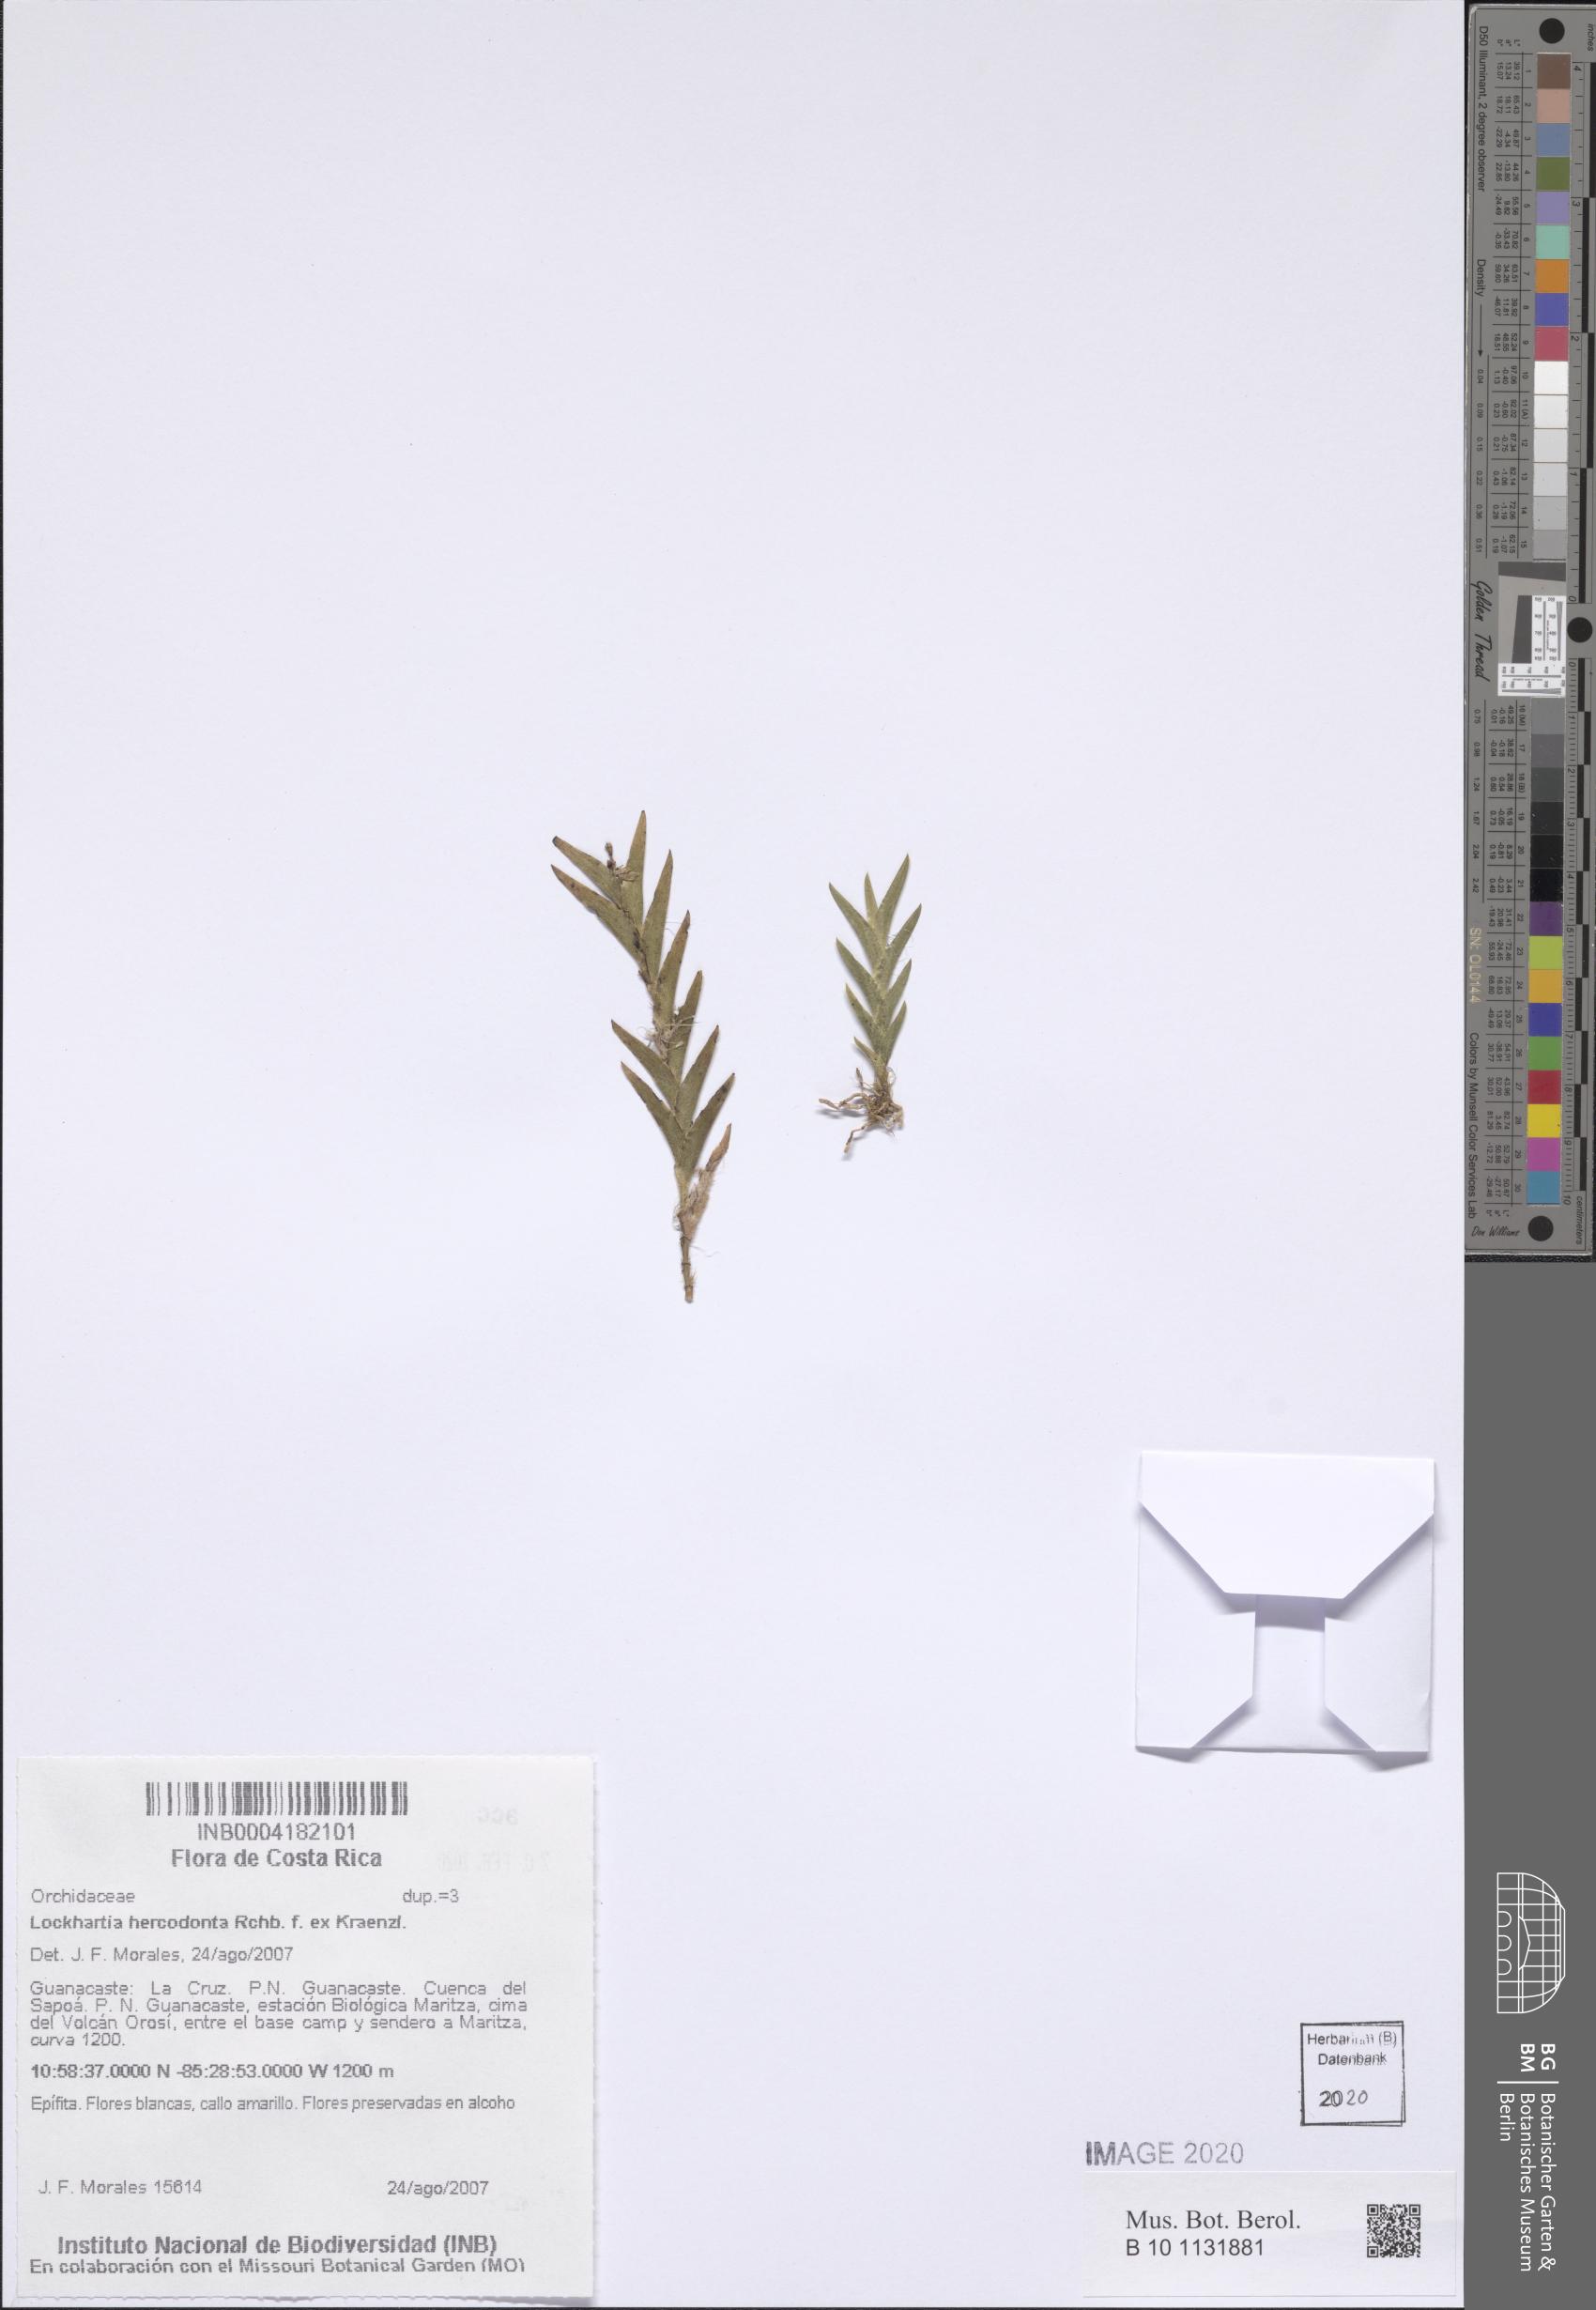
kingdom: Plantae
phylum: Tracheophyta
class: Liliopsida
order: Asparagales
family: Orchidaceae
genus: Lockhartia
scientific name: Lockhartia hercodonta
